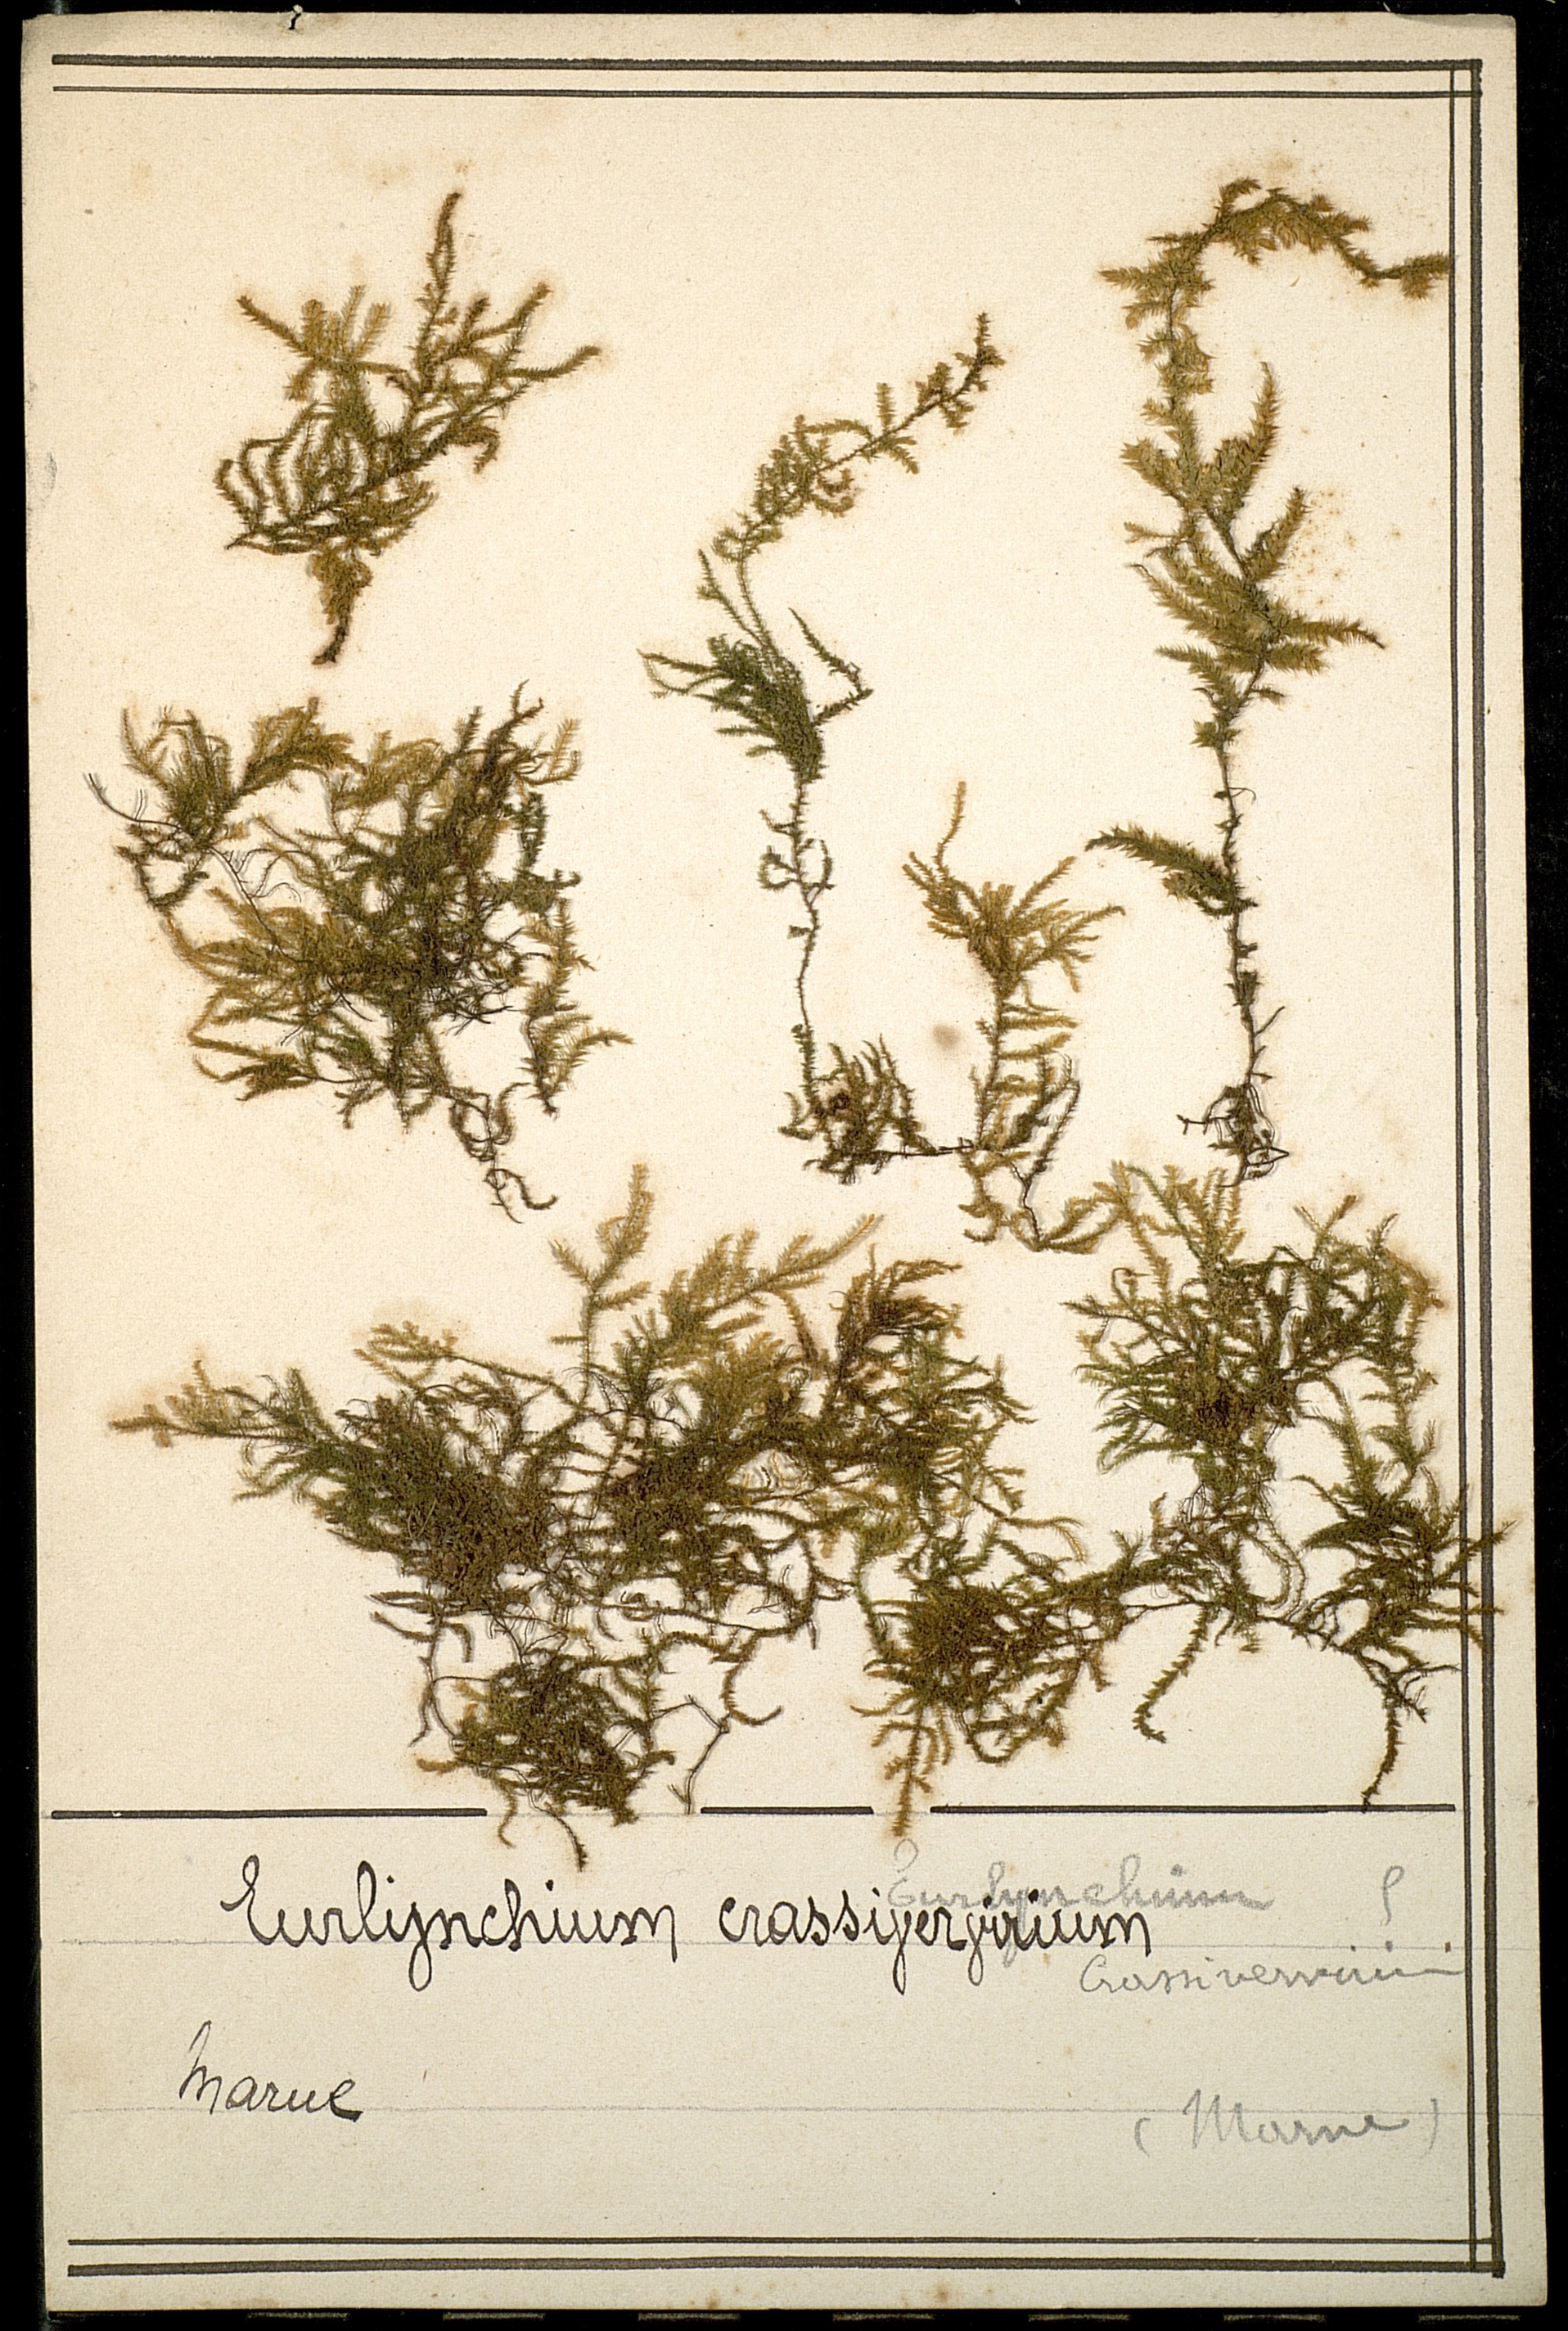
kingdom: Plantae
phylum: Bryophyta
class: Bryopsida
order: Hypnales
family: Brachytheciaceae
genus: Cirriphyllum
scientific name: Cirriphyllum crassinervium
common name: Beech feather-moss
